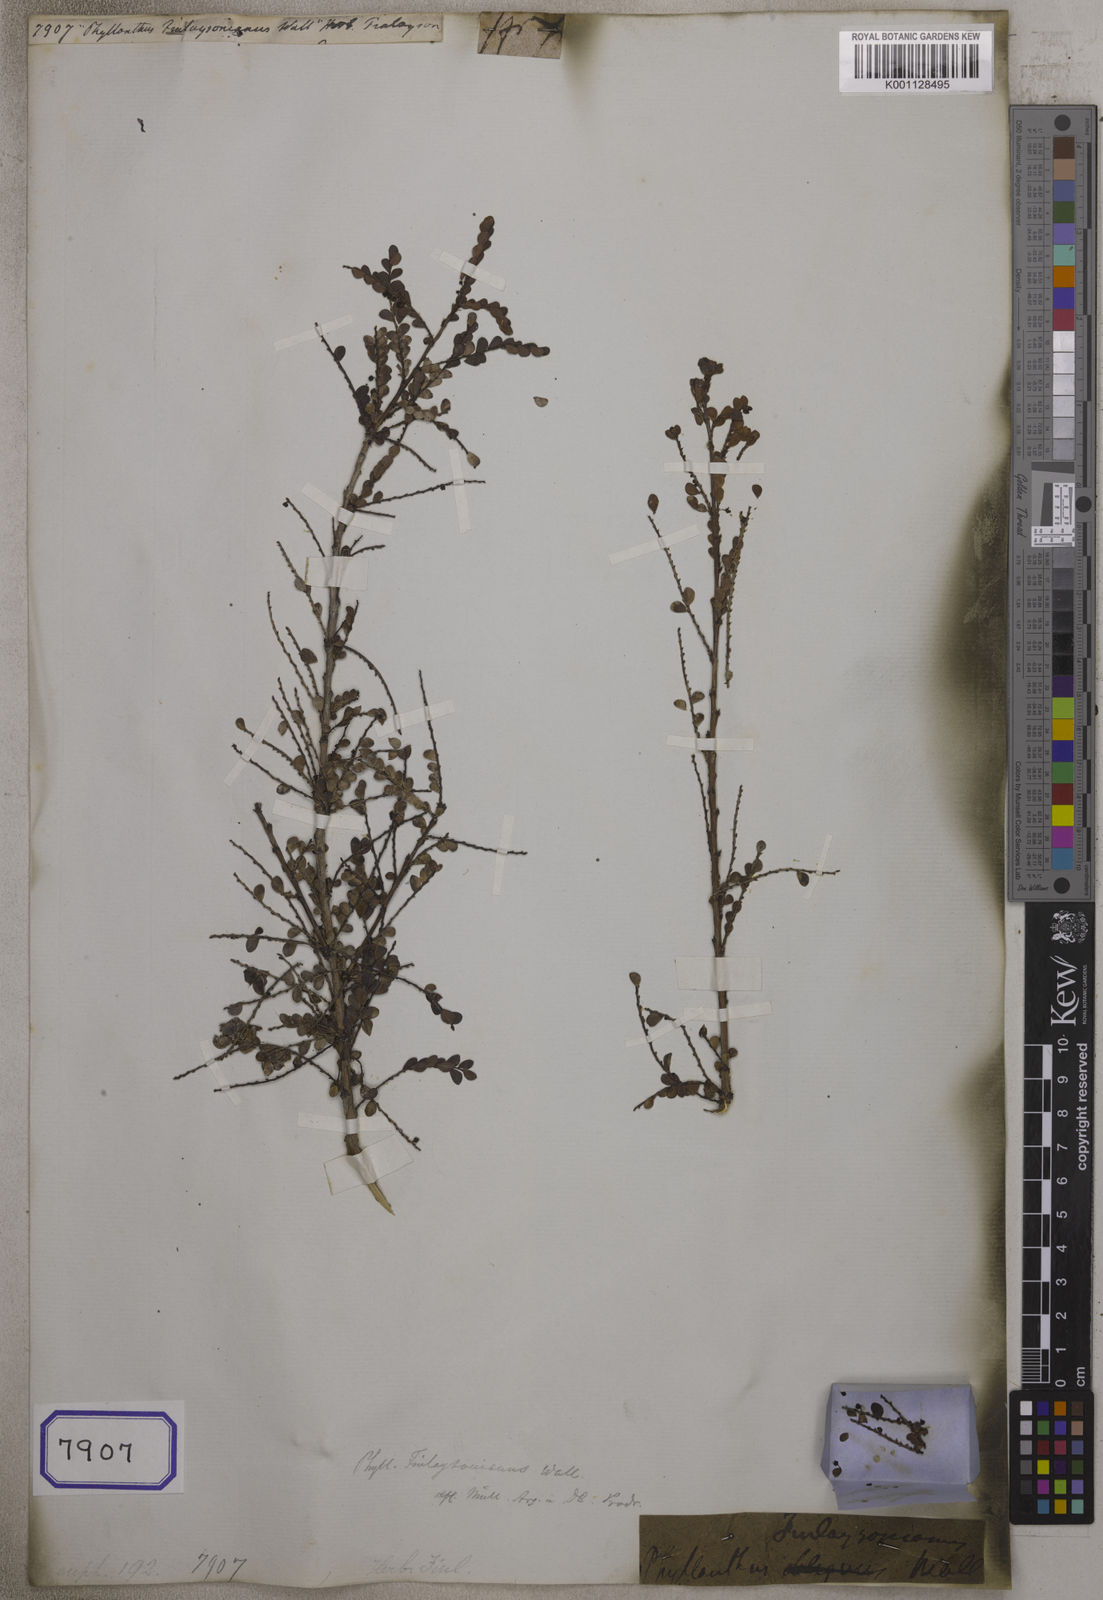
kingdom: Plantae
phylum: Tracheophyta
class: Magnoliopsida
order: Malpighiales
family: Euphorbiaceae
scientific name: Euphorbiaceae
